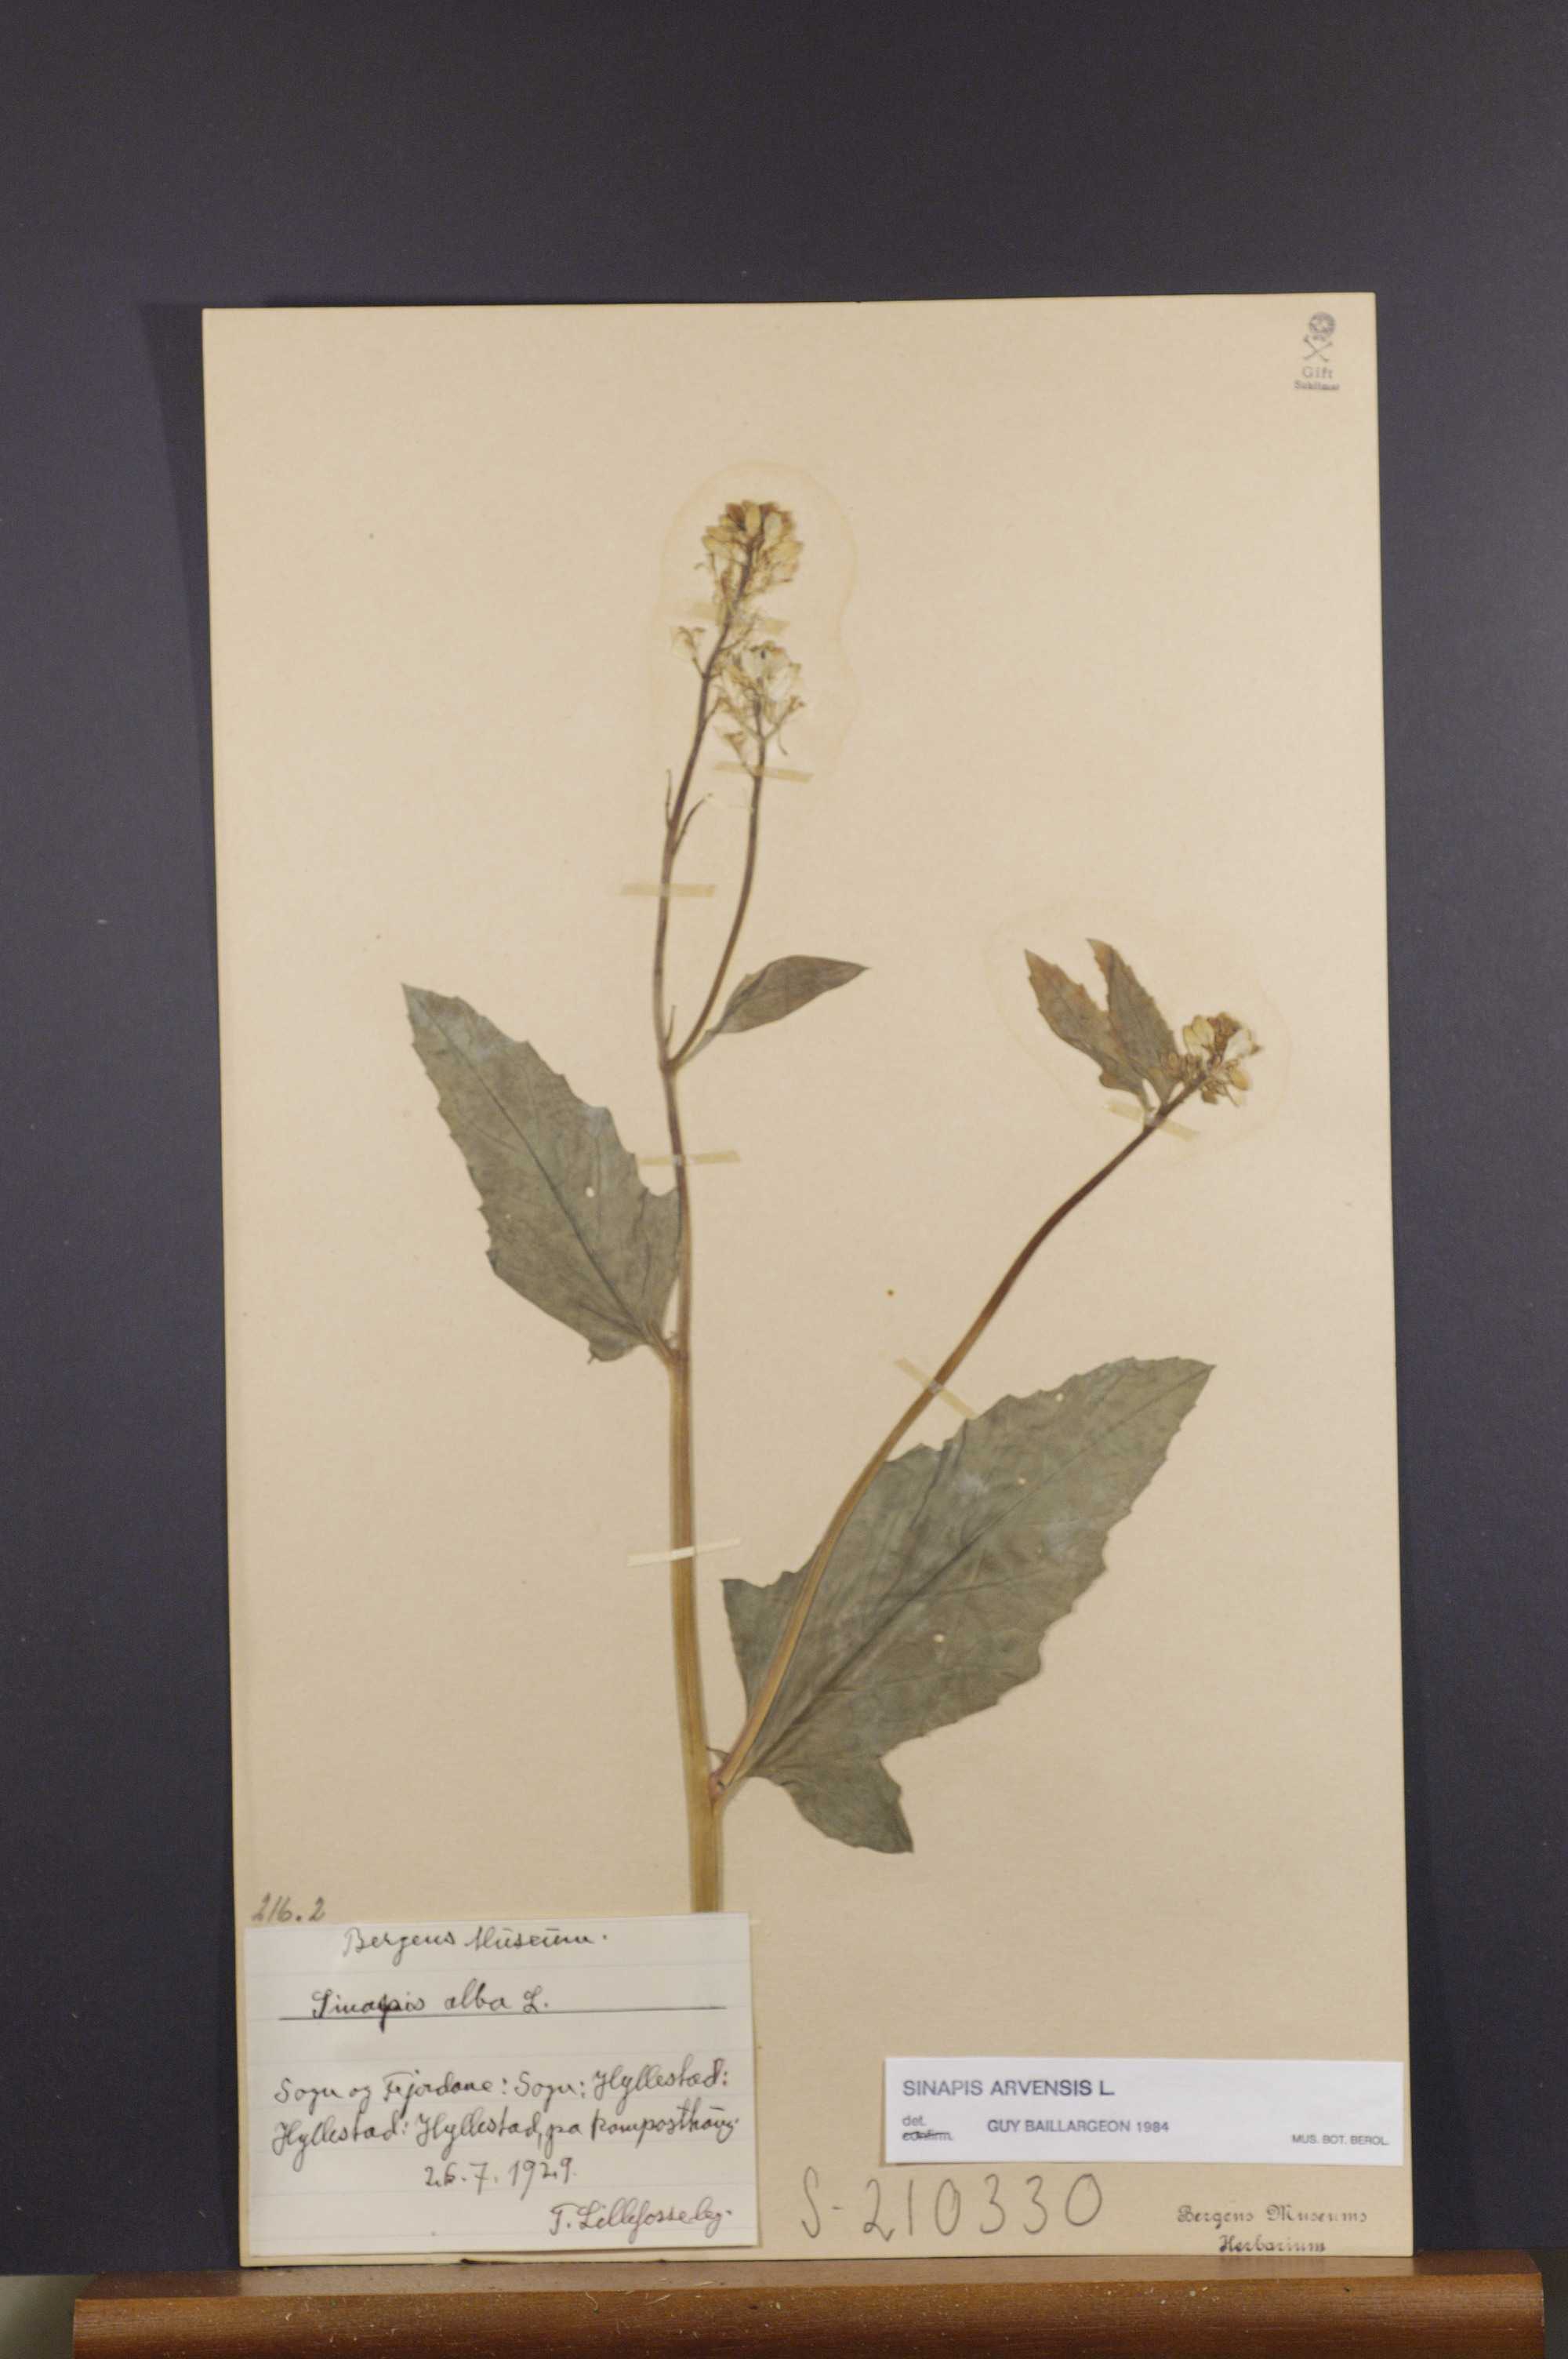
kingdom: Plantae
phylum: Tracheophyta
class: Magnoliopsida
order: Brassicales
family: Brassicaceae
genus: Sinapis
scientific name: Sinapis arvensis
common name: Charlock
